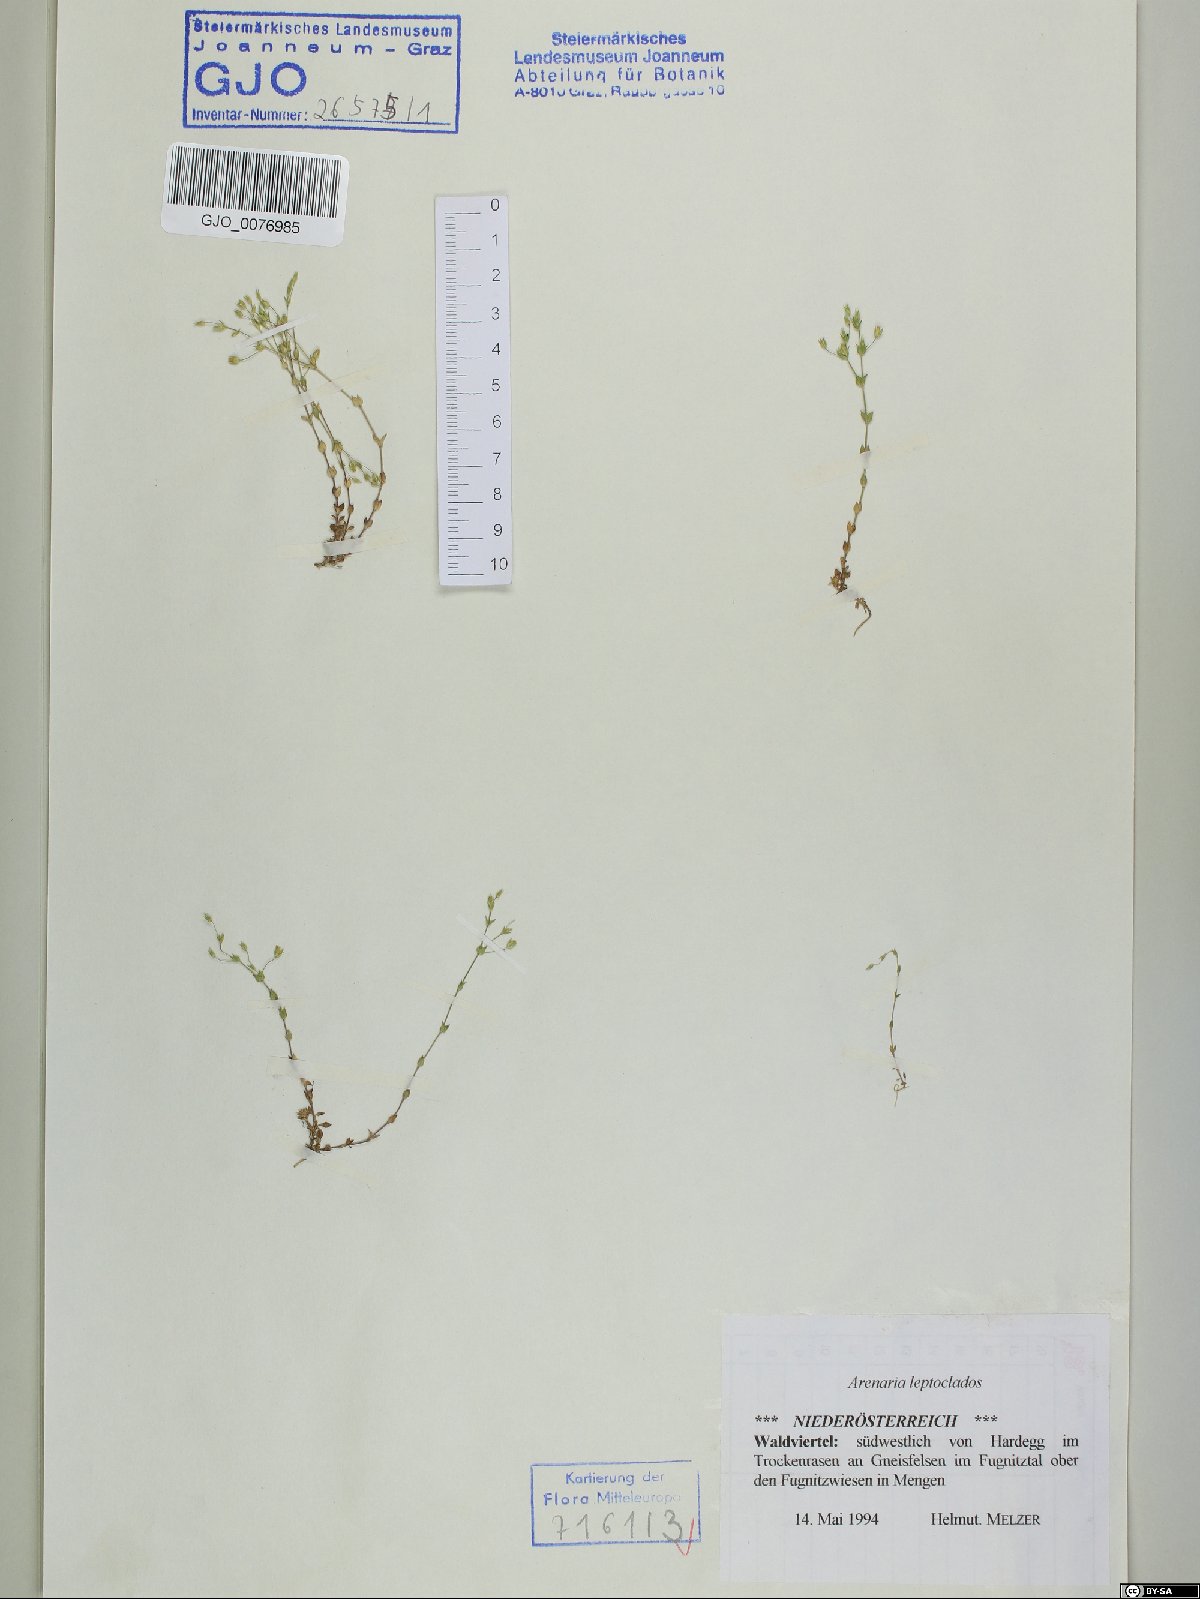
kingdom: Plantae
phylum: Tracheophyta
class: Magnoliopsida
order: Caryophyllales
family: Caryophyllaceae
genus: Arenaria
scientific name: Arenaria leptoclados
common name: Thyme-leaved sandwort
